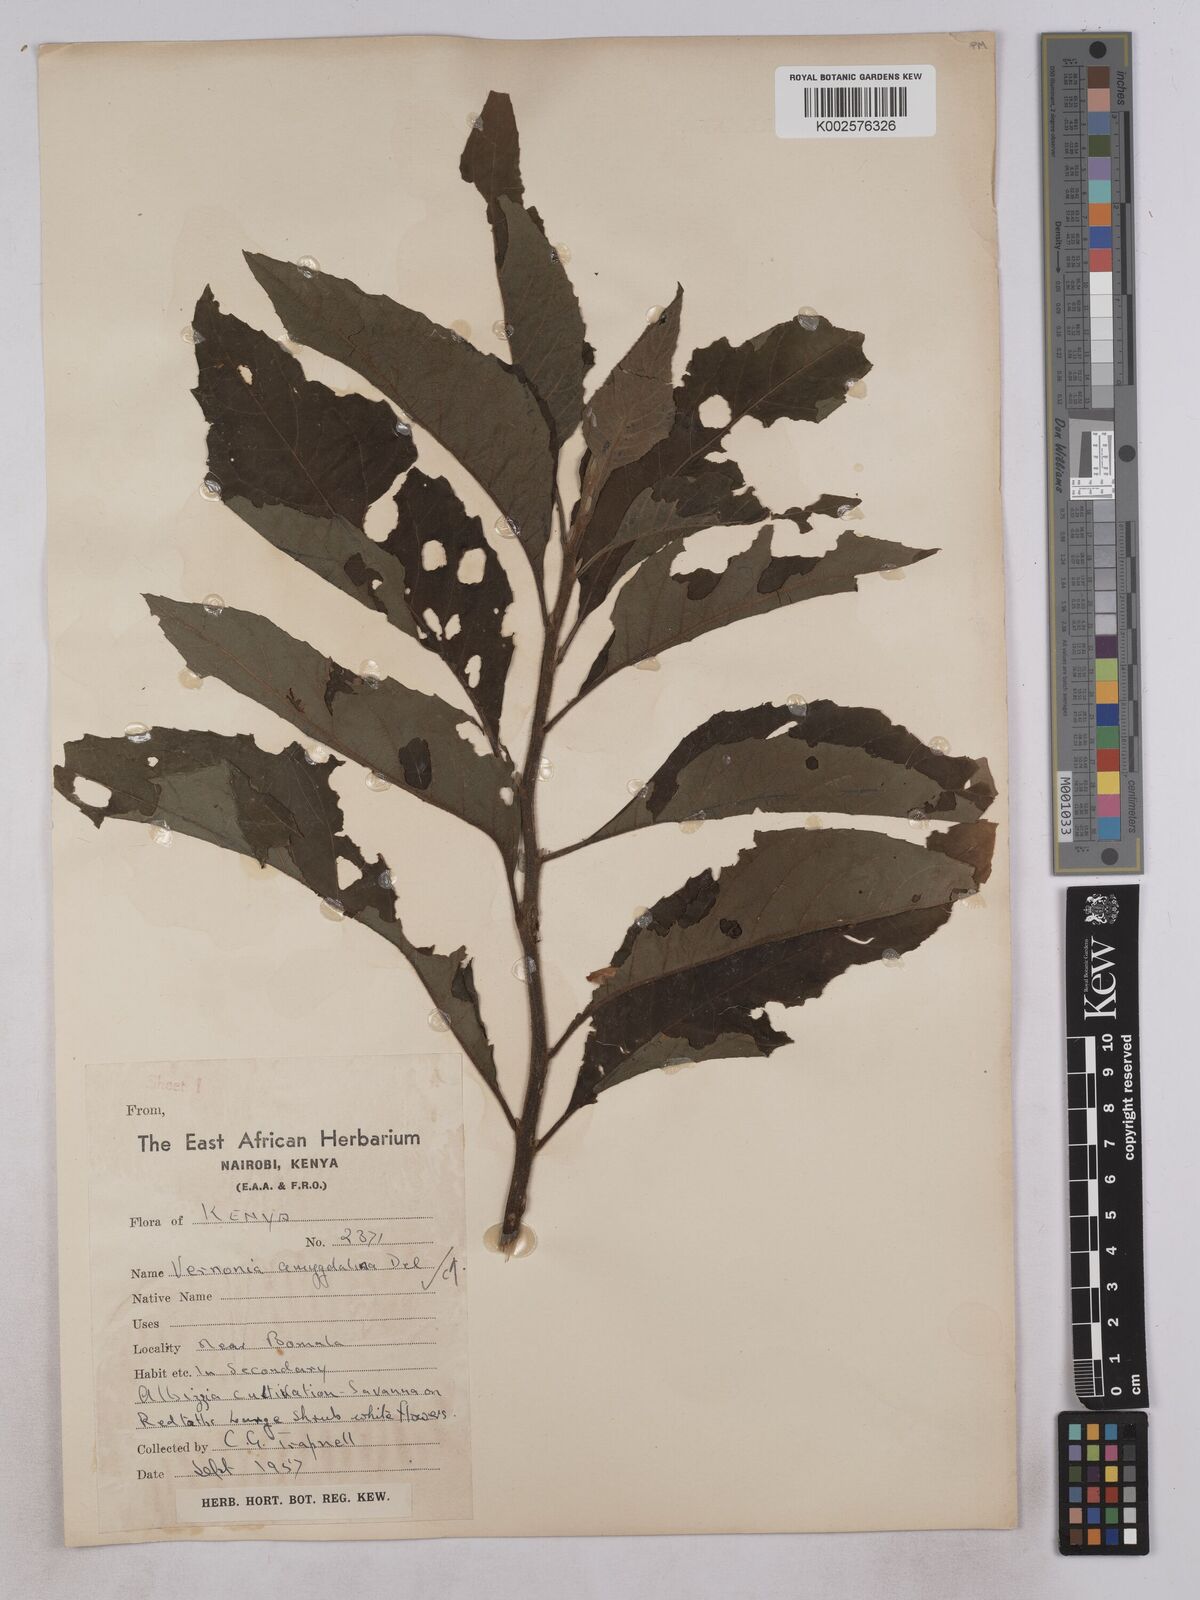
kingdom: Plantae
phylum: Tracheophyta
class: Magnoliopsida
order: Asterales
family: Asteraceae
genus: Gymnanthemum
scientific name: Gymnanthemum amygdalinum
